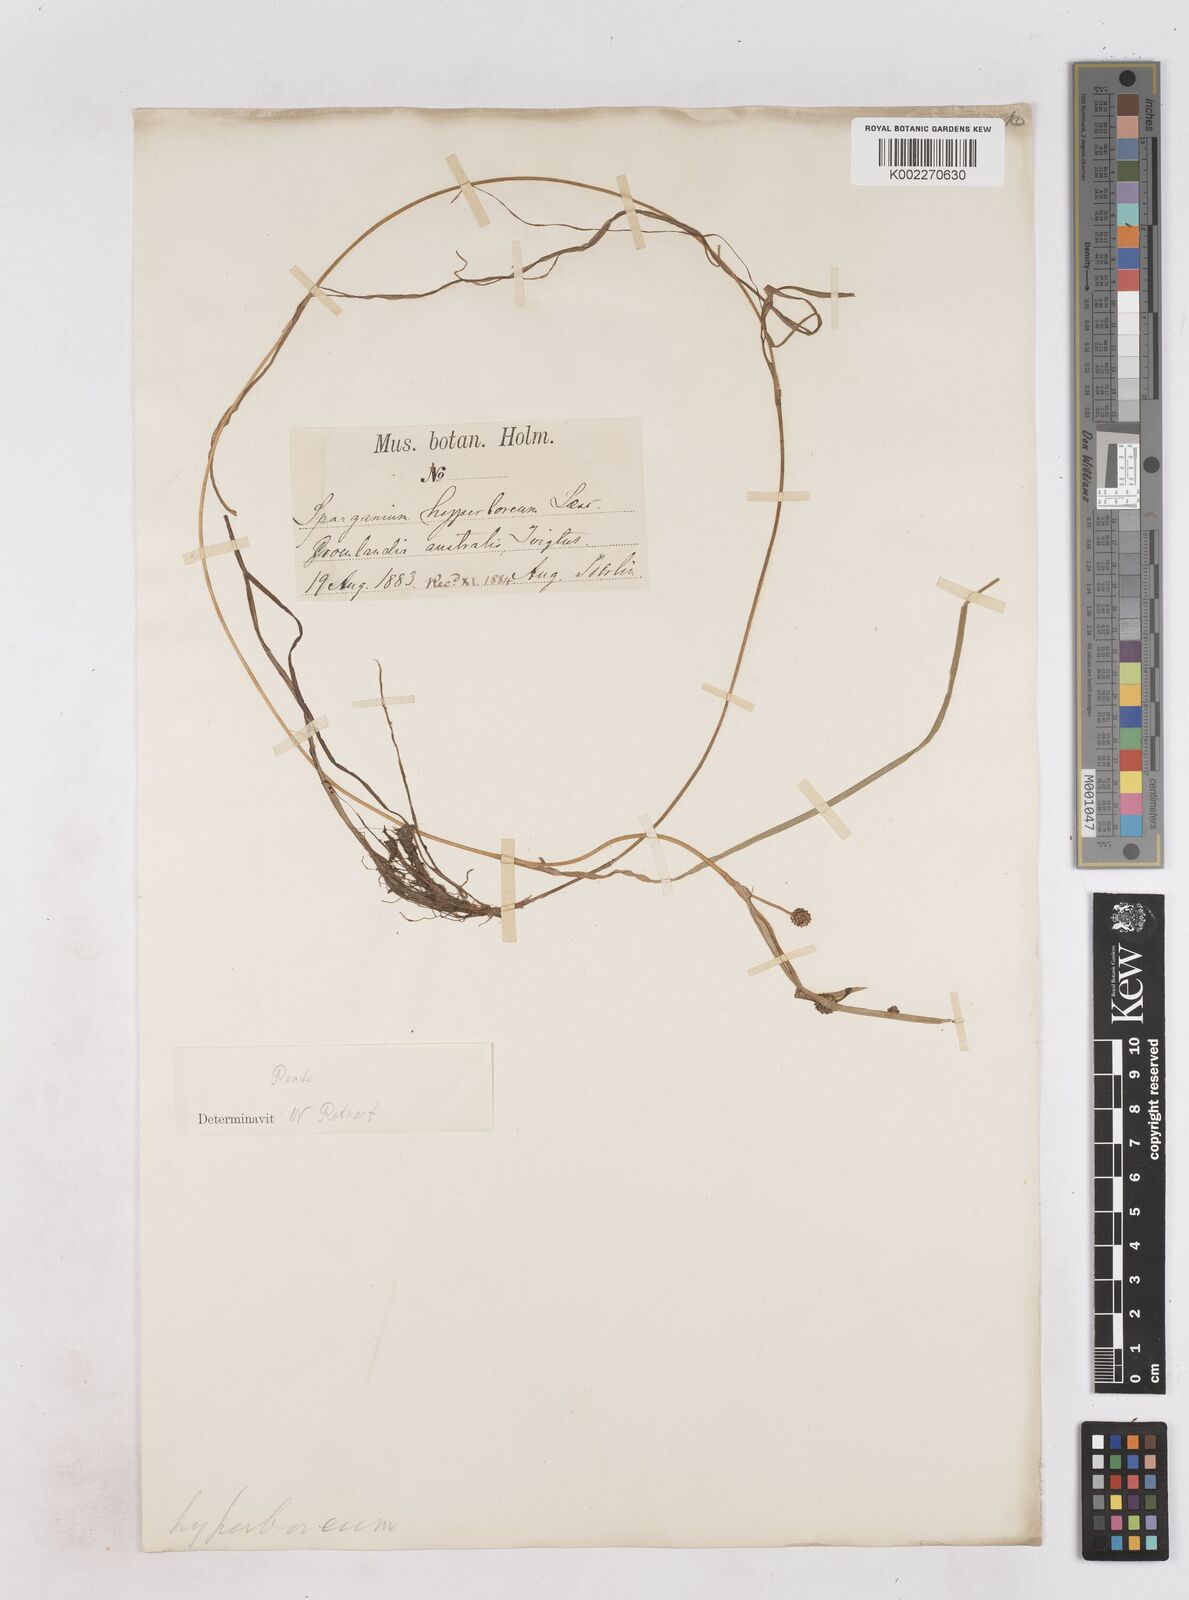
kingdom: Plantae
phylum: Tracheophyta
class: Liliopsida
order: Poales
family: Typhaceae
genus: Sparganium
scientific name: Sparganium hyperboreum
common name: Arctic burreed
